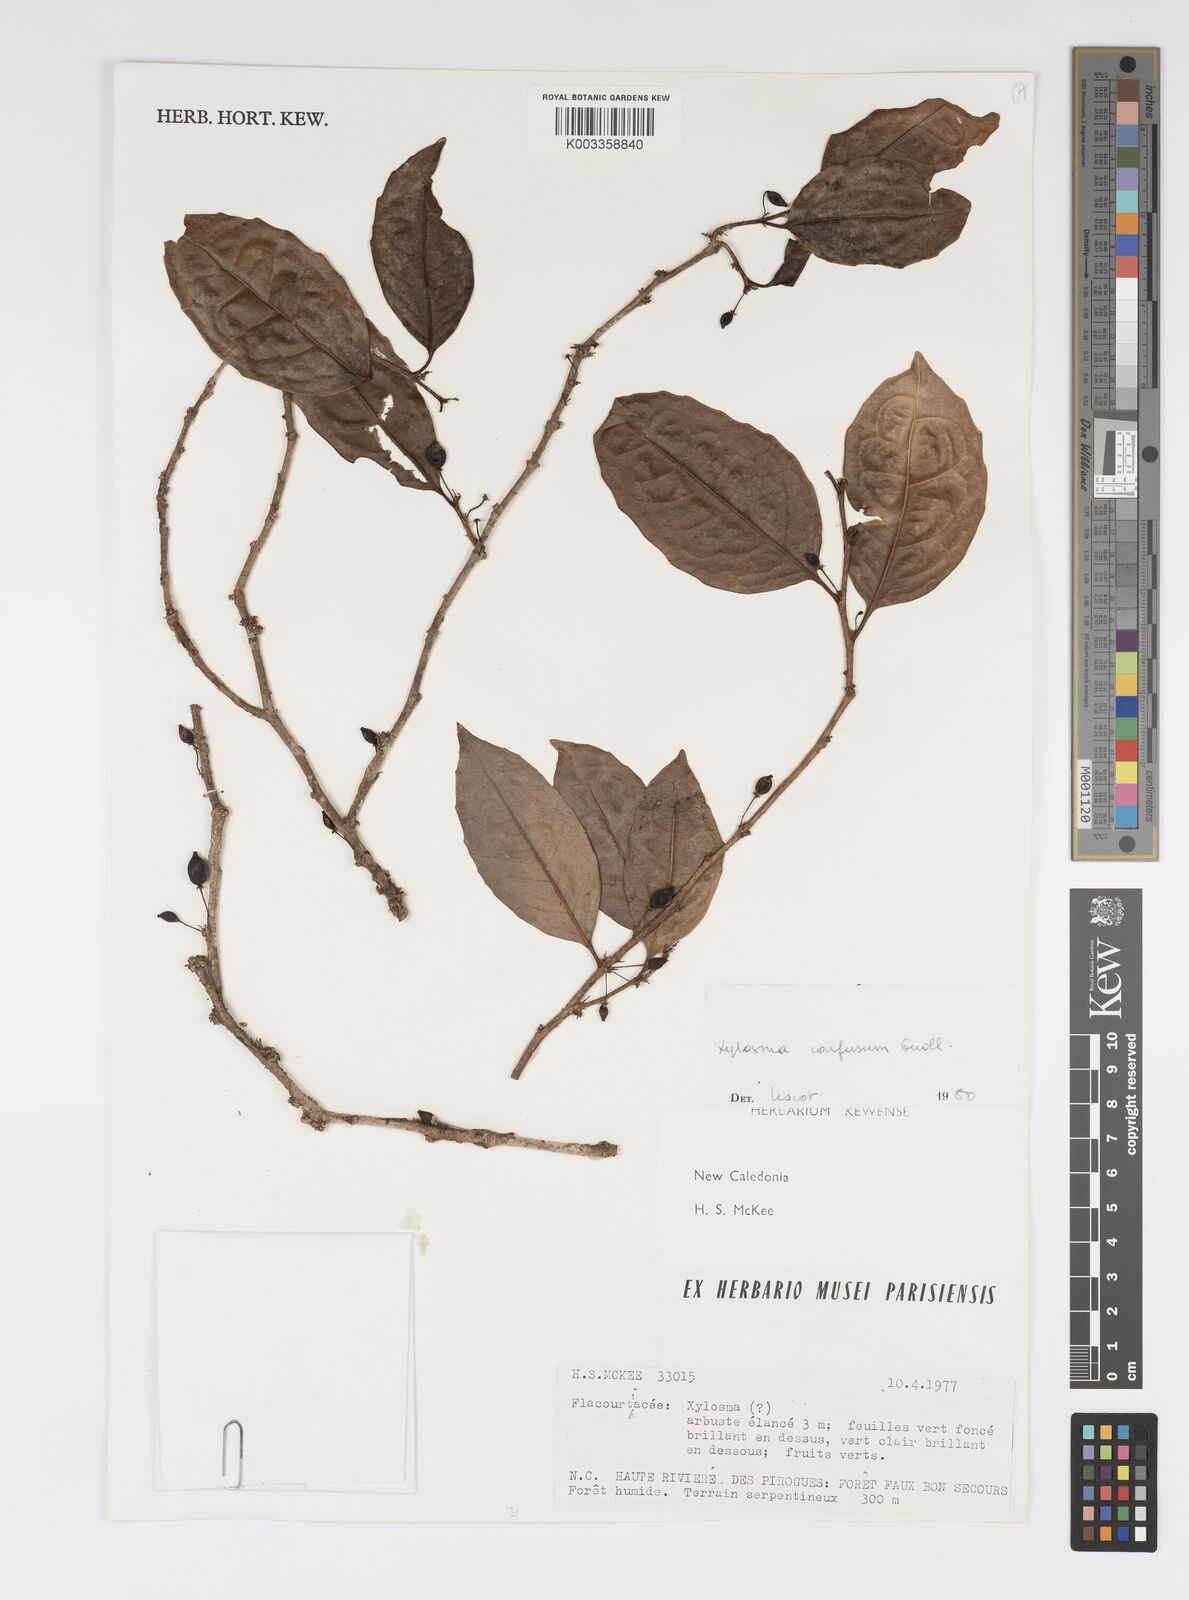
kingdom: Plantae
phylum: Tracheophyta
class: Magnoliopsida
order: Malpighiales
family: Salicaceae
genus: Xylosma
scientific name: Xylosma confusa
